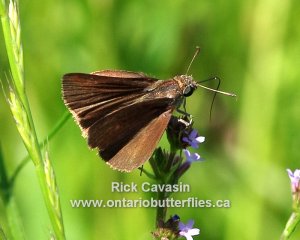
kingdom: Animalia
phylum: Arthropoda
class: Insecta
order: Lepidoptera
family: Hesperiidae
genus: Euphyes
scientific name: Euphyes vestris
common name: Dun Skipper
